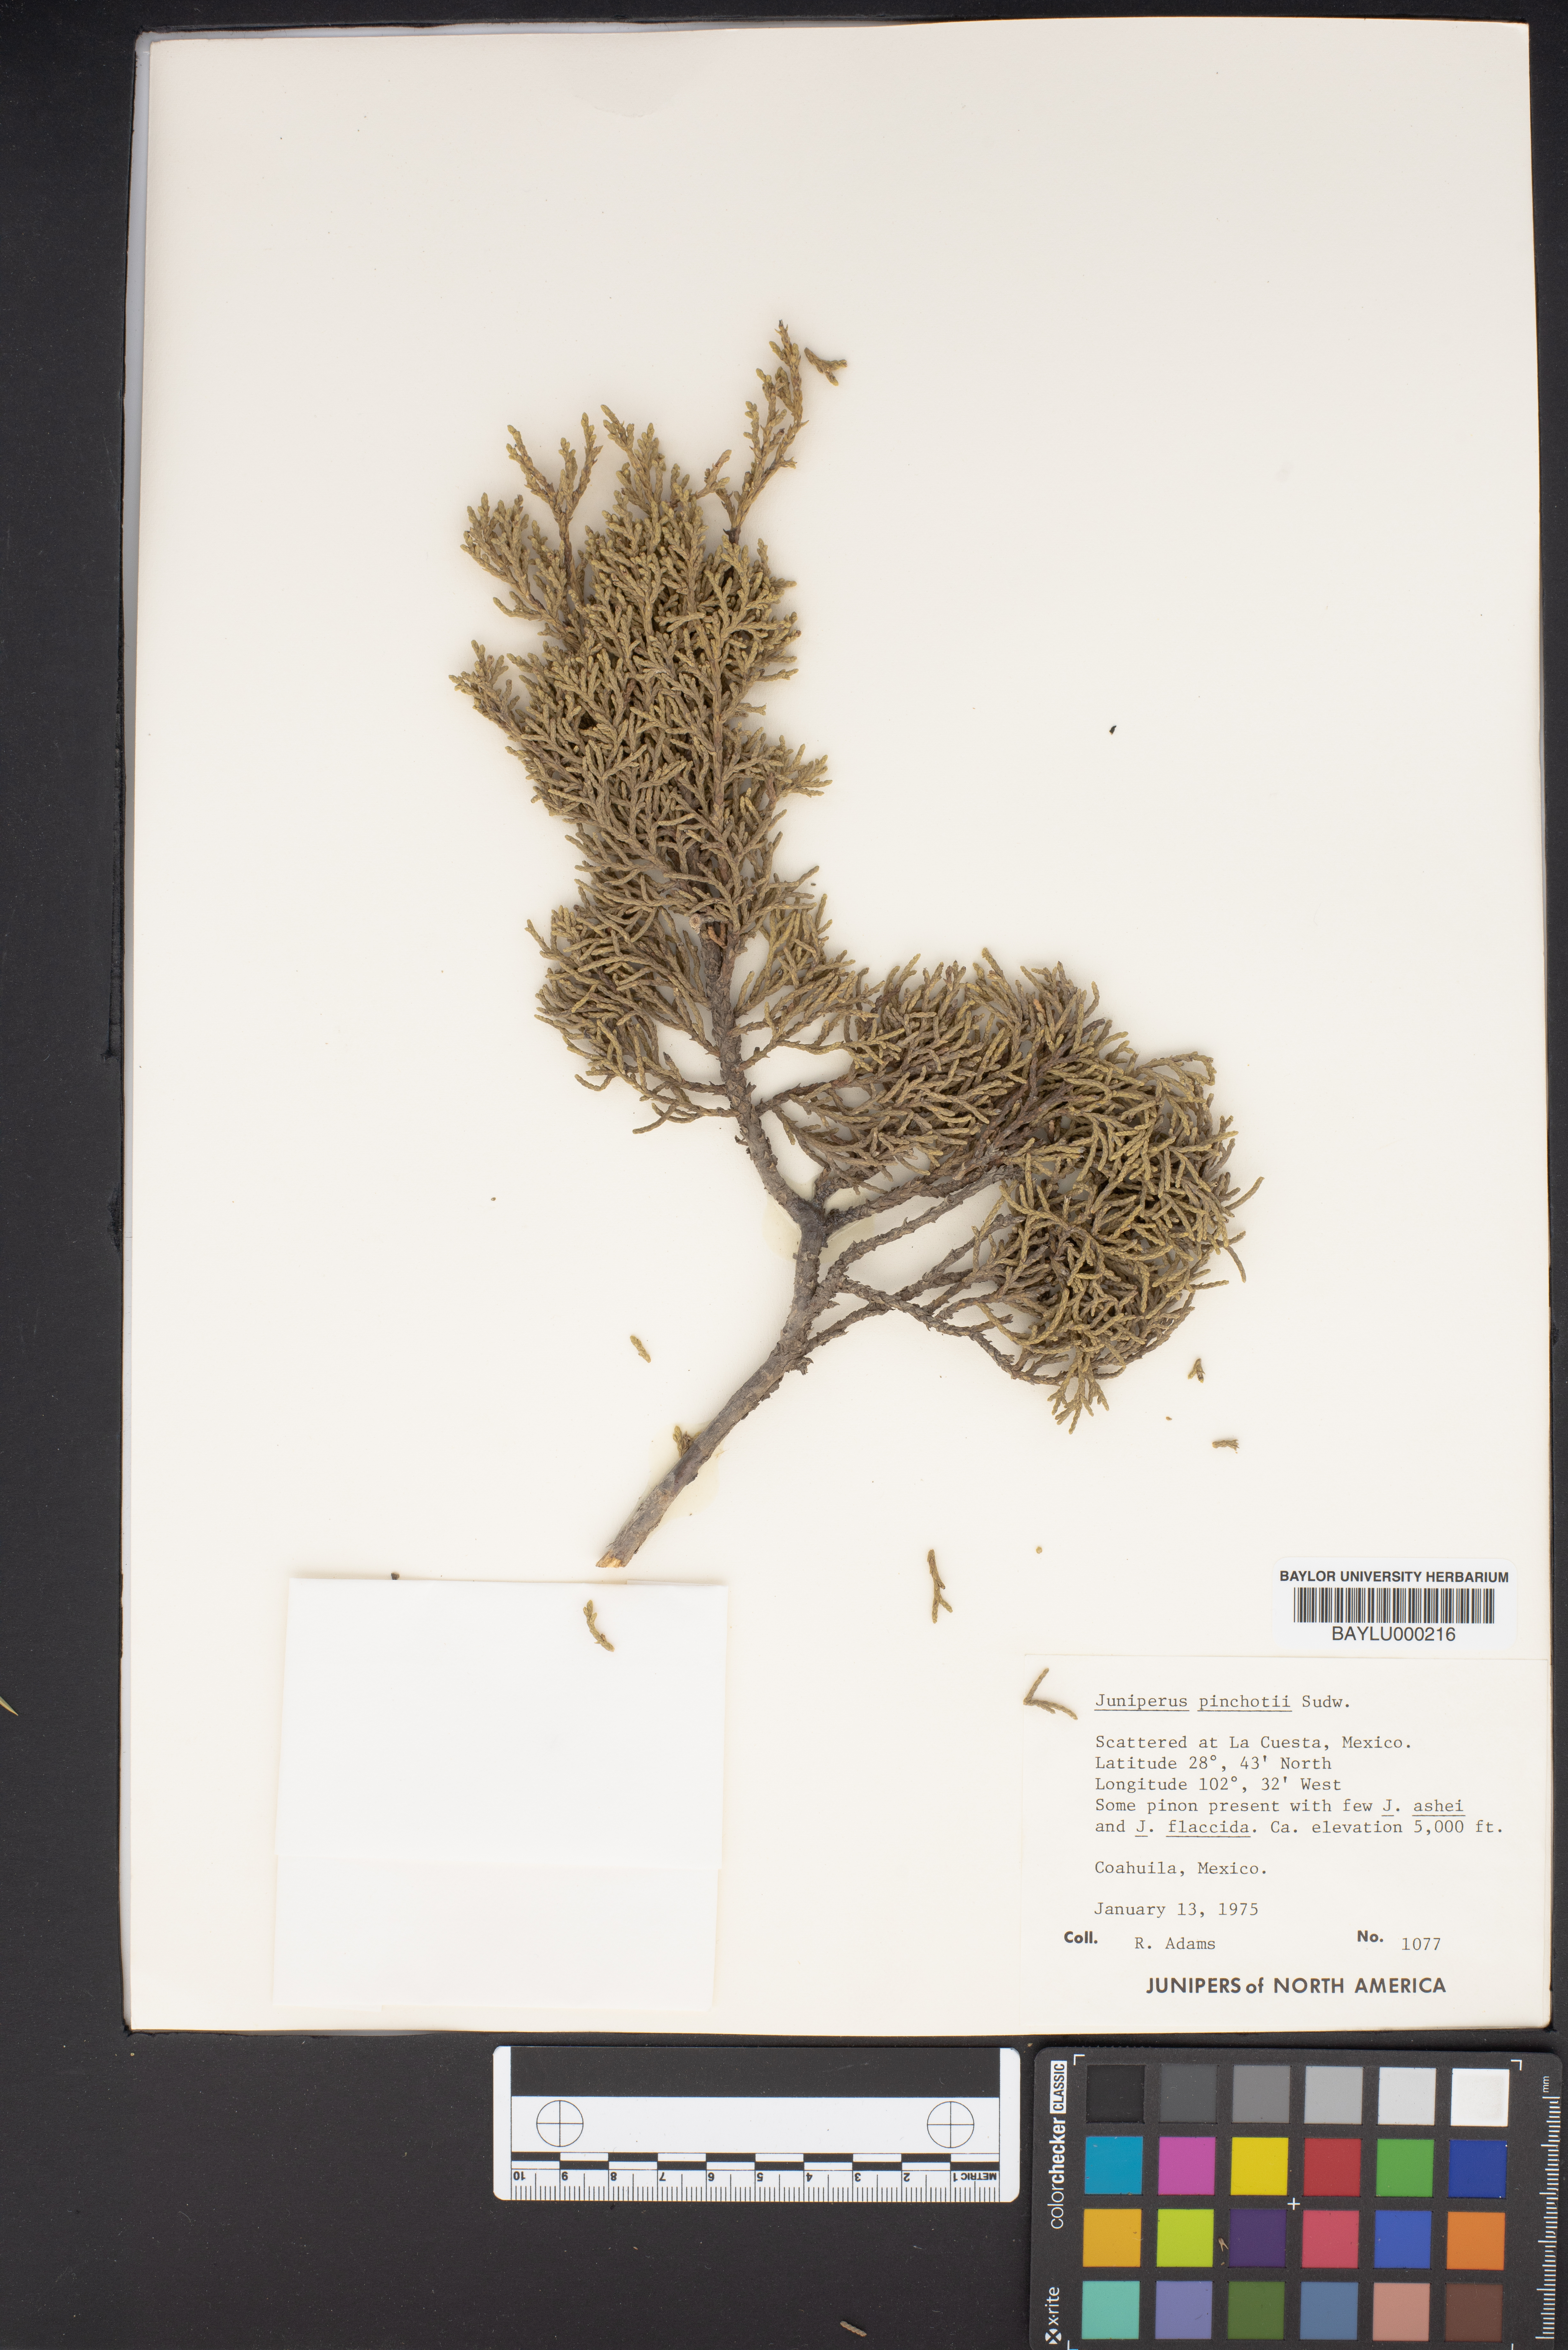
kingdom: Plantae
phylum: Tracheophyta
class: Pinopsida
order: Pinales
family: Cupressaceae
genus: Juniperus
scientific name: Juniperus pinchotii
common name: Pinchot juniper
